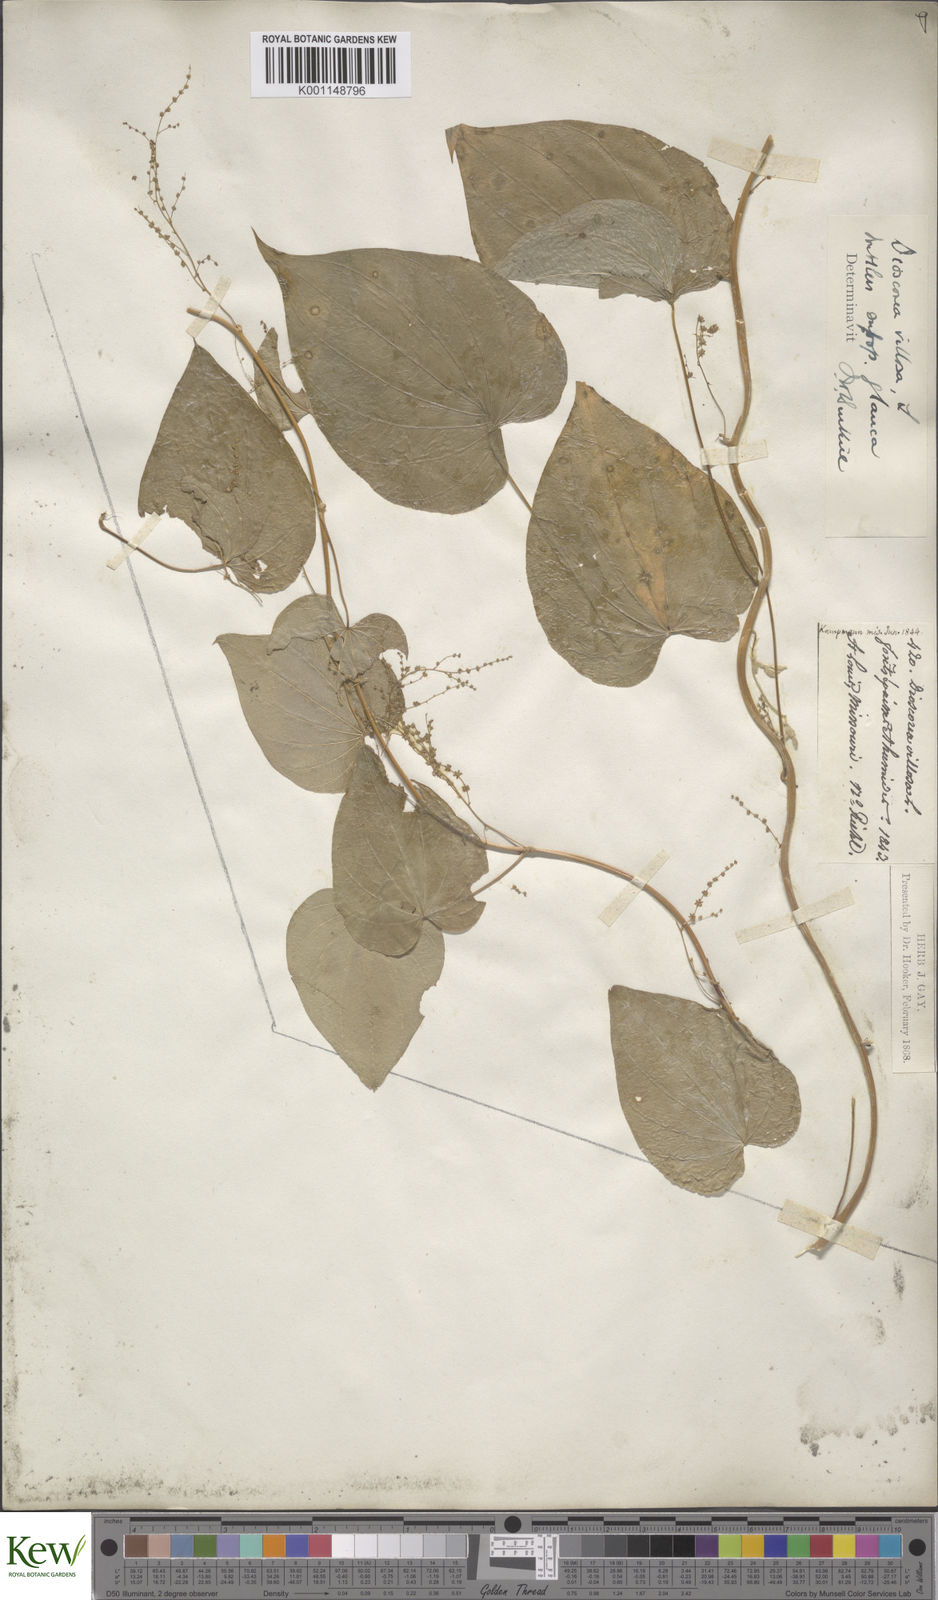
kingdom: Plantae
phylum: Tracheophyta
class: Liliopsida
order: Dioscoreales
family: Dioscoreaceae
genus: Dioscorea
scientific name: Dioscorea villosa
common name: Wild yam
